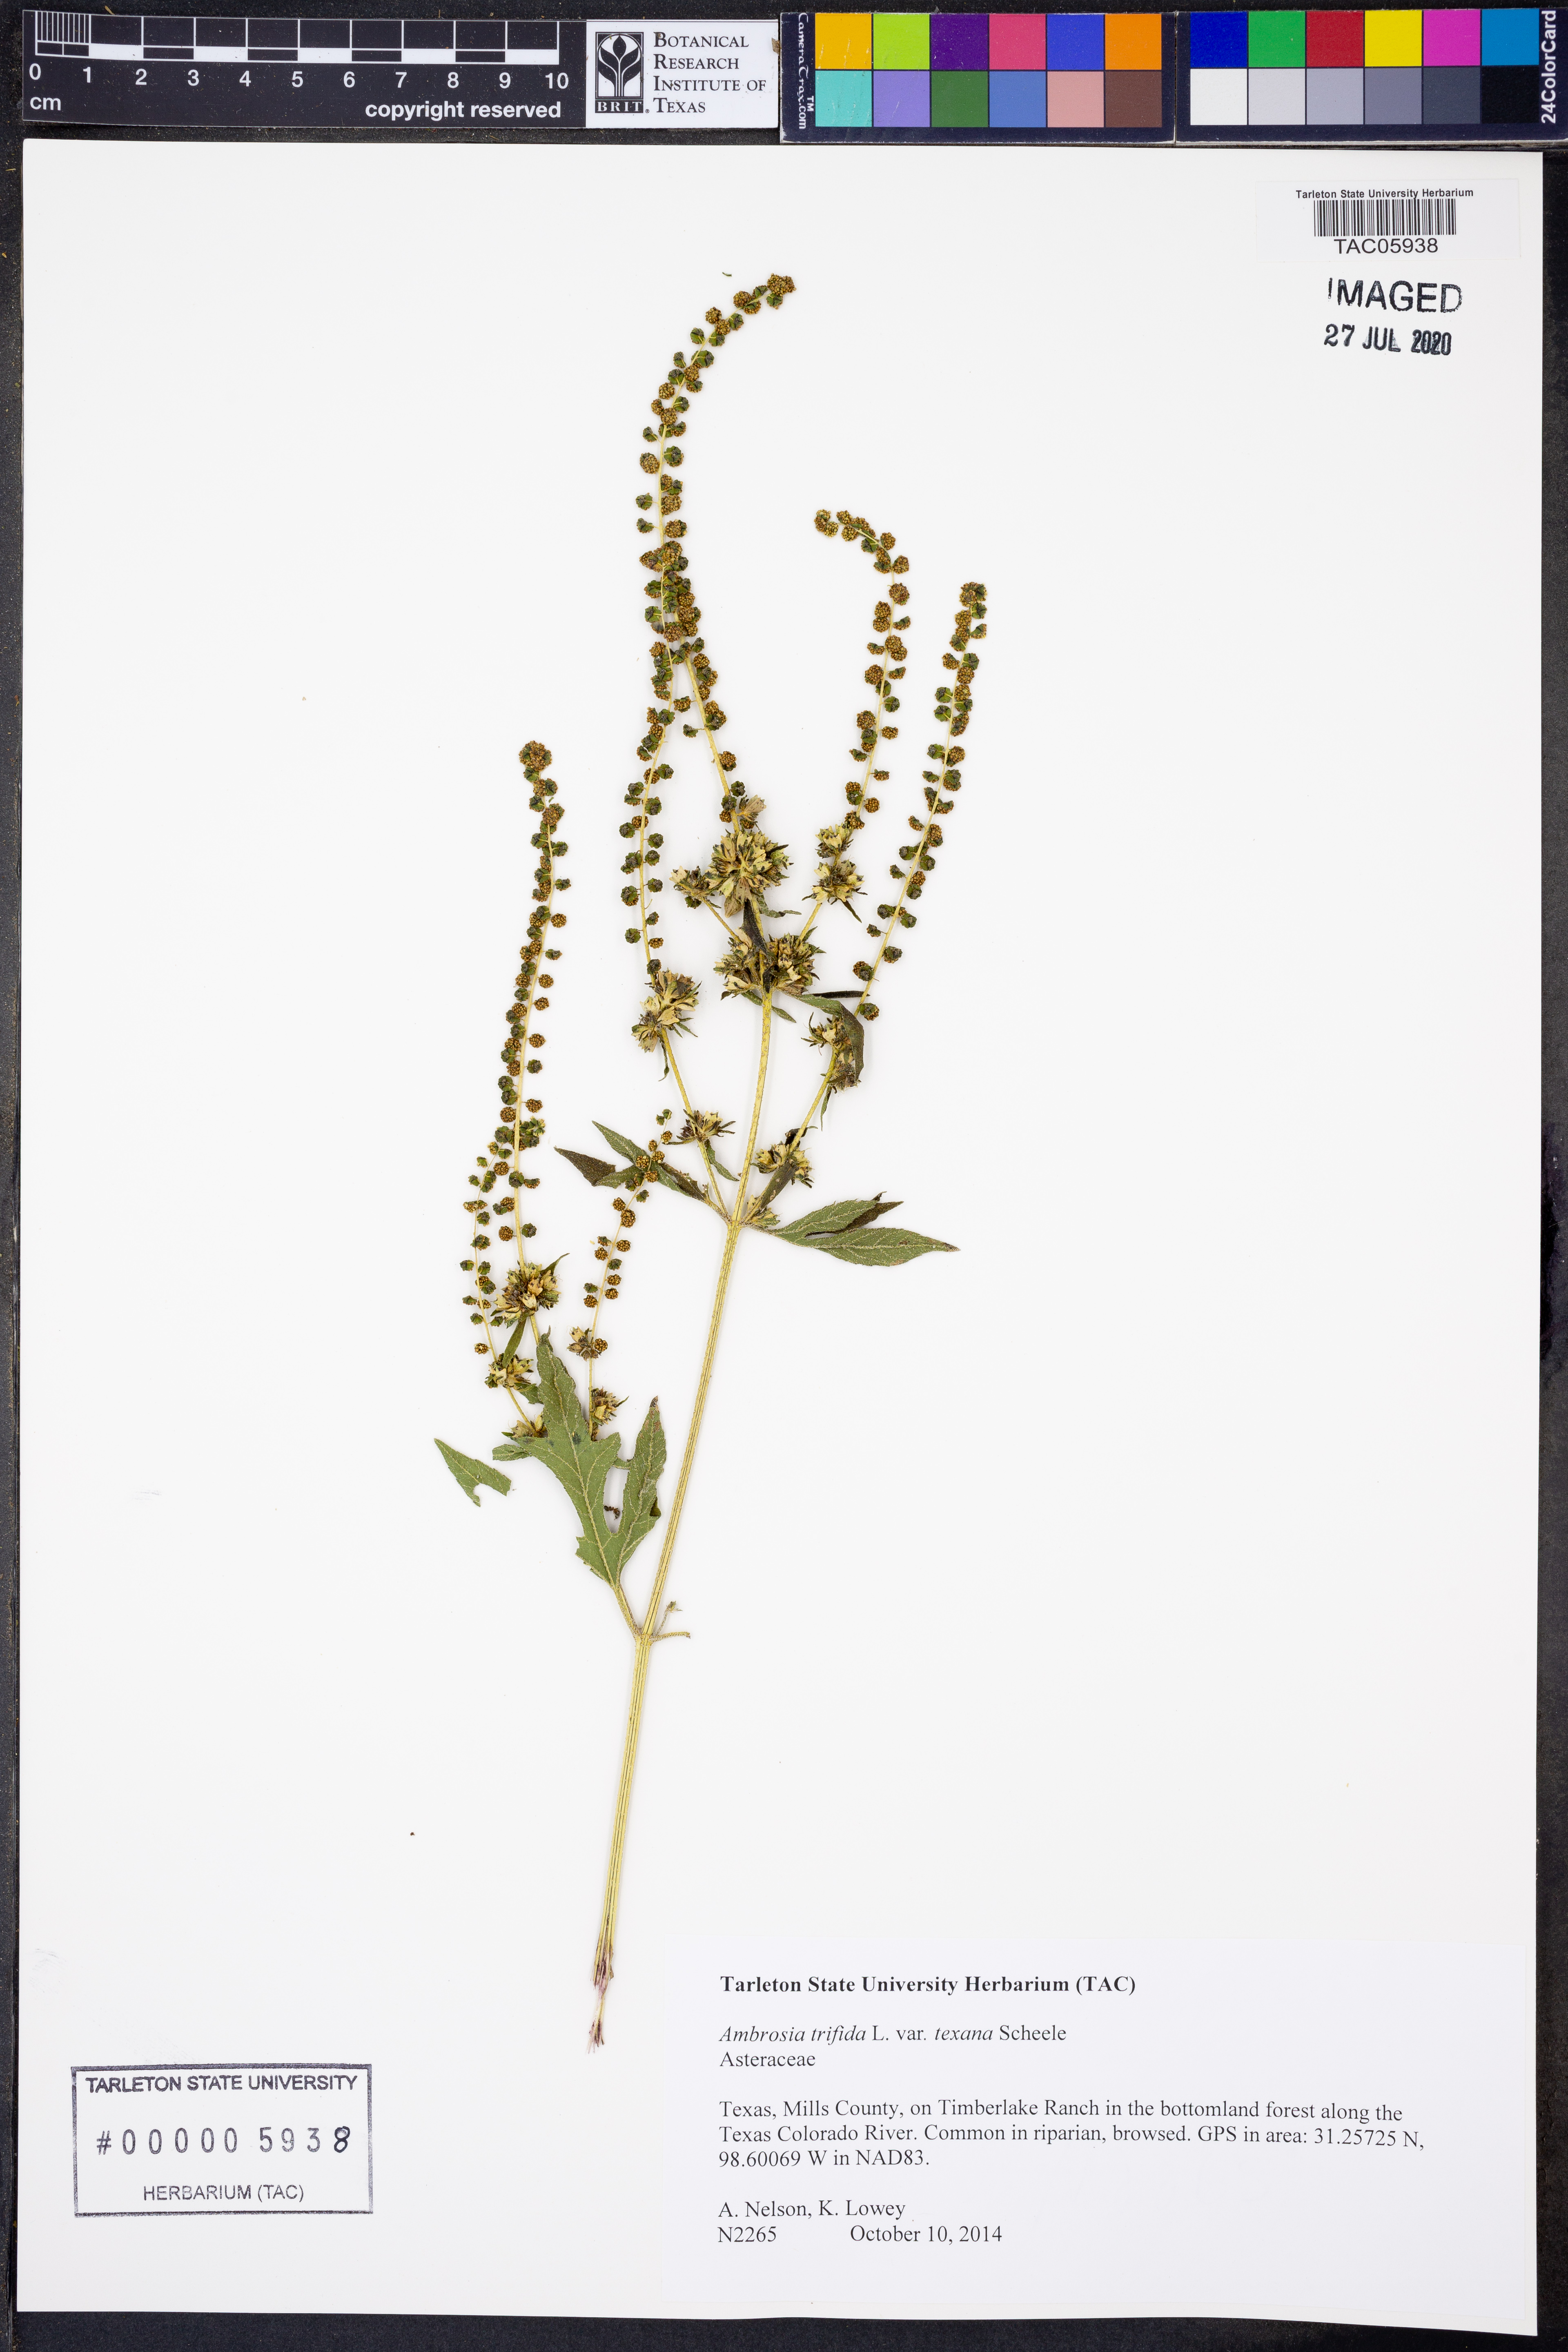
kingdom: Plantae
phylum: Tracheophyta
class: Magnoliopsida
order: Asterales
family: Asteraceae
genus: Ambrosia
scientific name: Ambrosia trifida
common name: Giant ragweed
